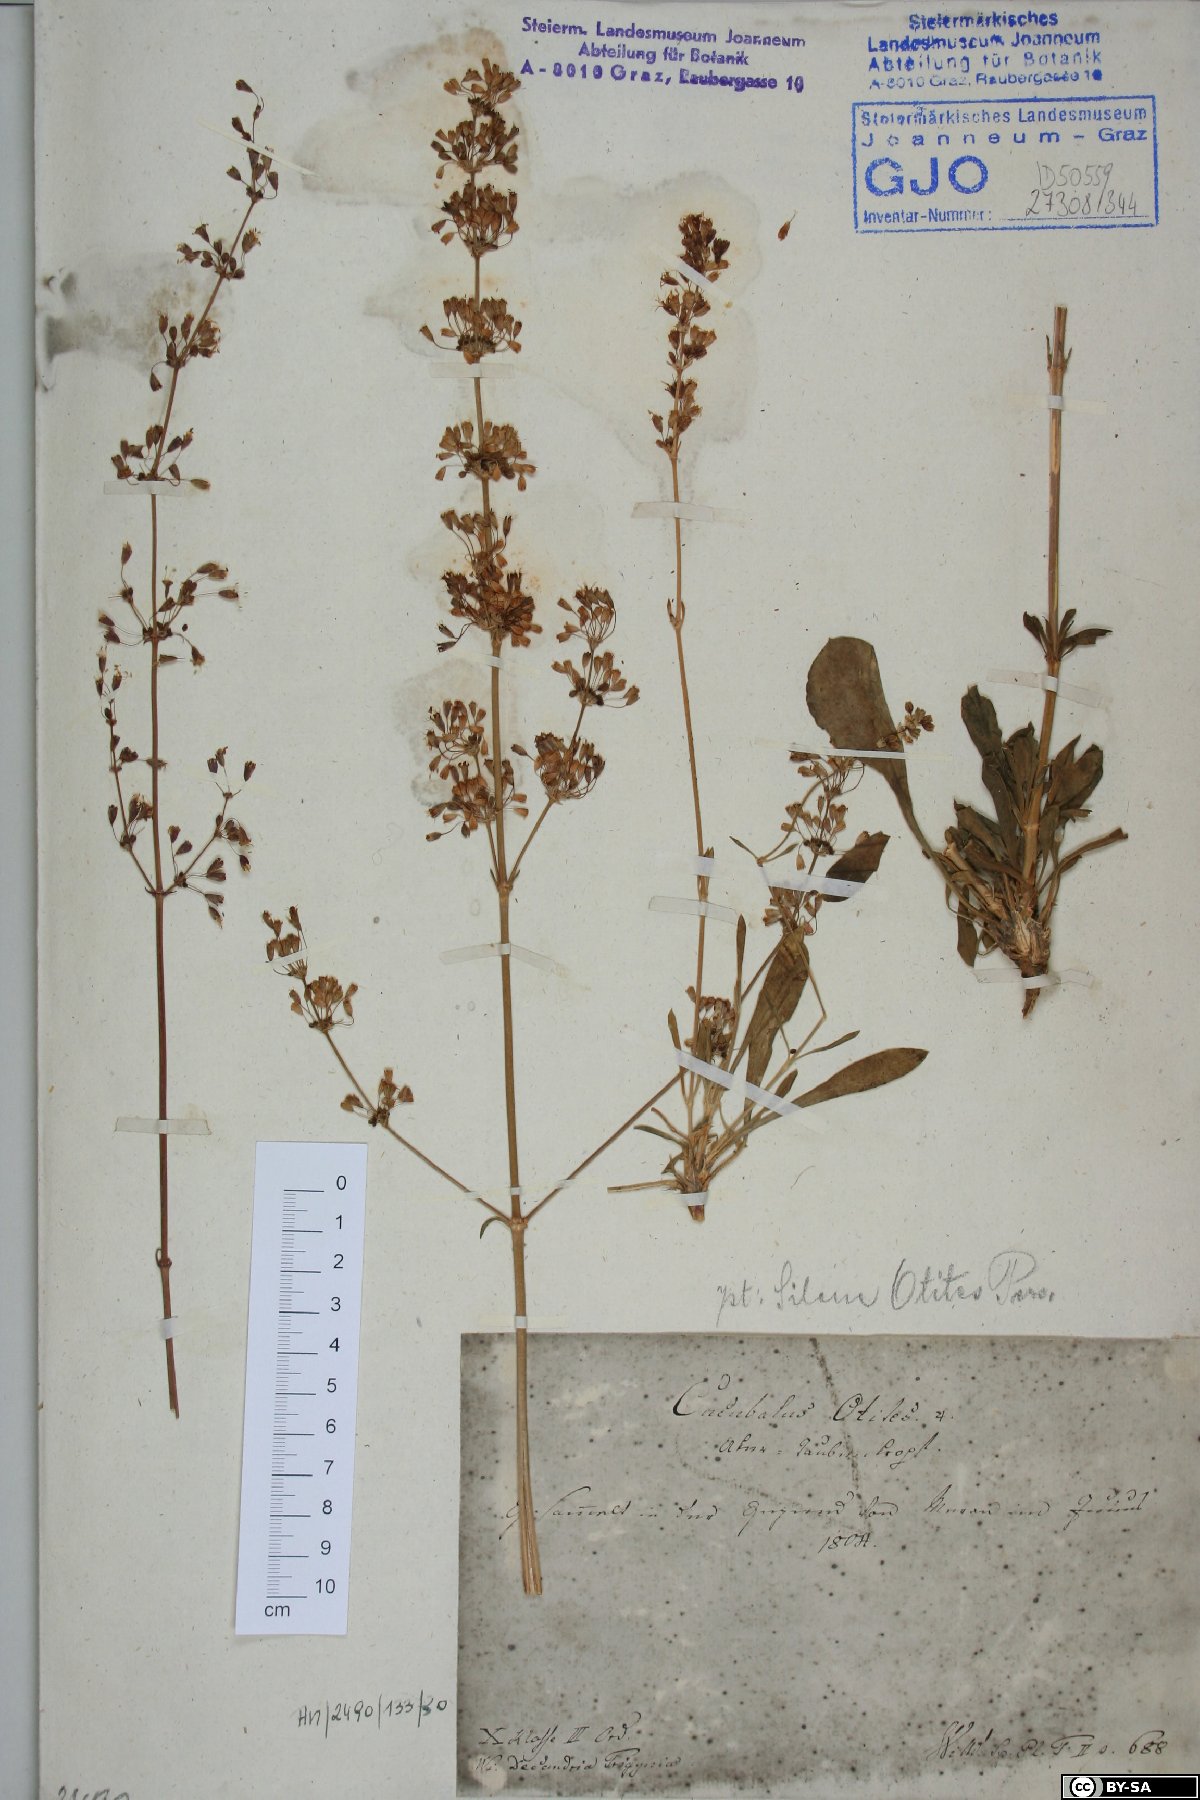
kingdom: Plantae
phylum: Tracheophyta
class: Magnoliopsida
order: Caryophyllales
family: Caryophyllaceae
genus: Silene
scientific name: Silene otites
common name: Spanish catchfly
